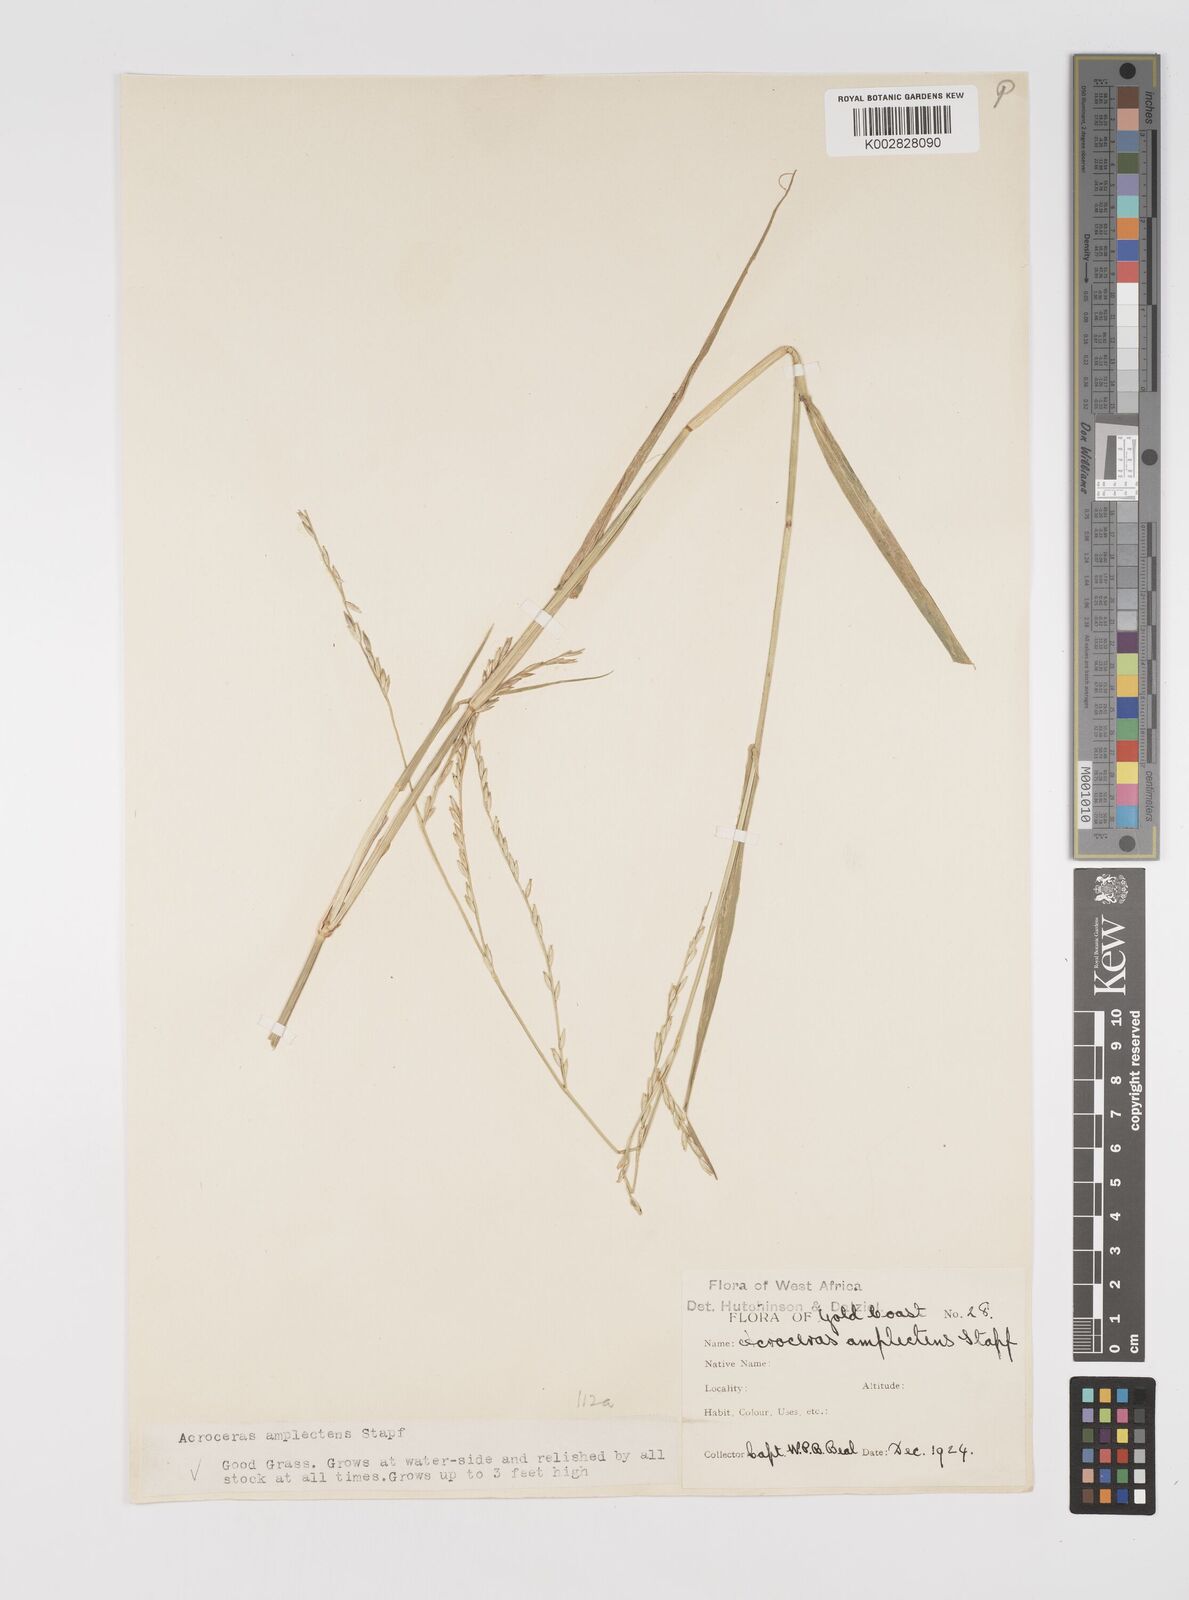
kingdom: Plantae
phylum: Tracheophyta
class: Liliopsida
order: Poales
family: Poaceae
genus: Acroceras
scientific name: Acroceras amplectens
